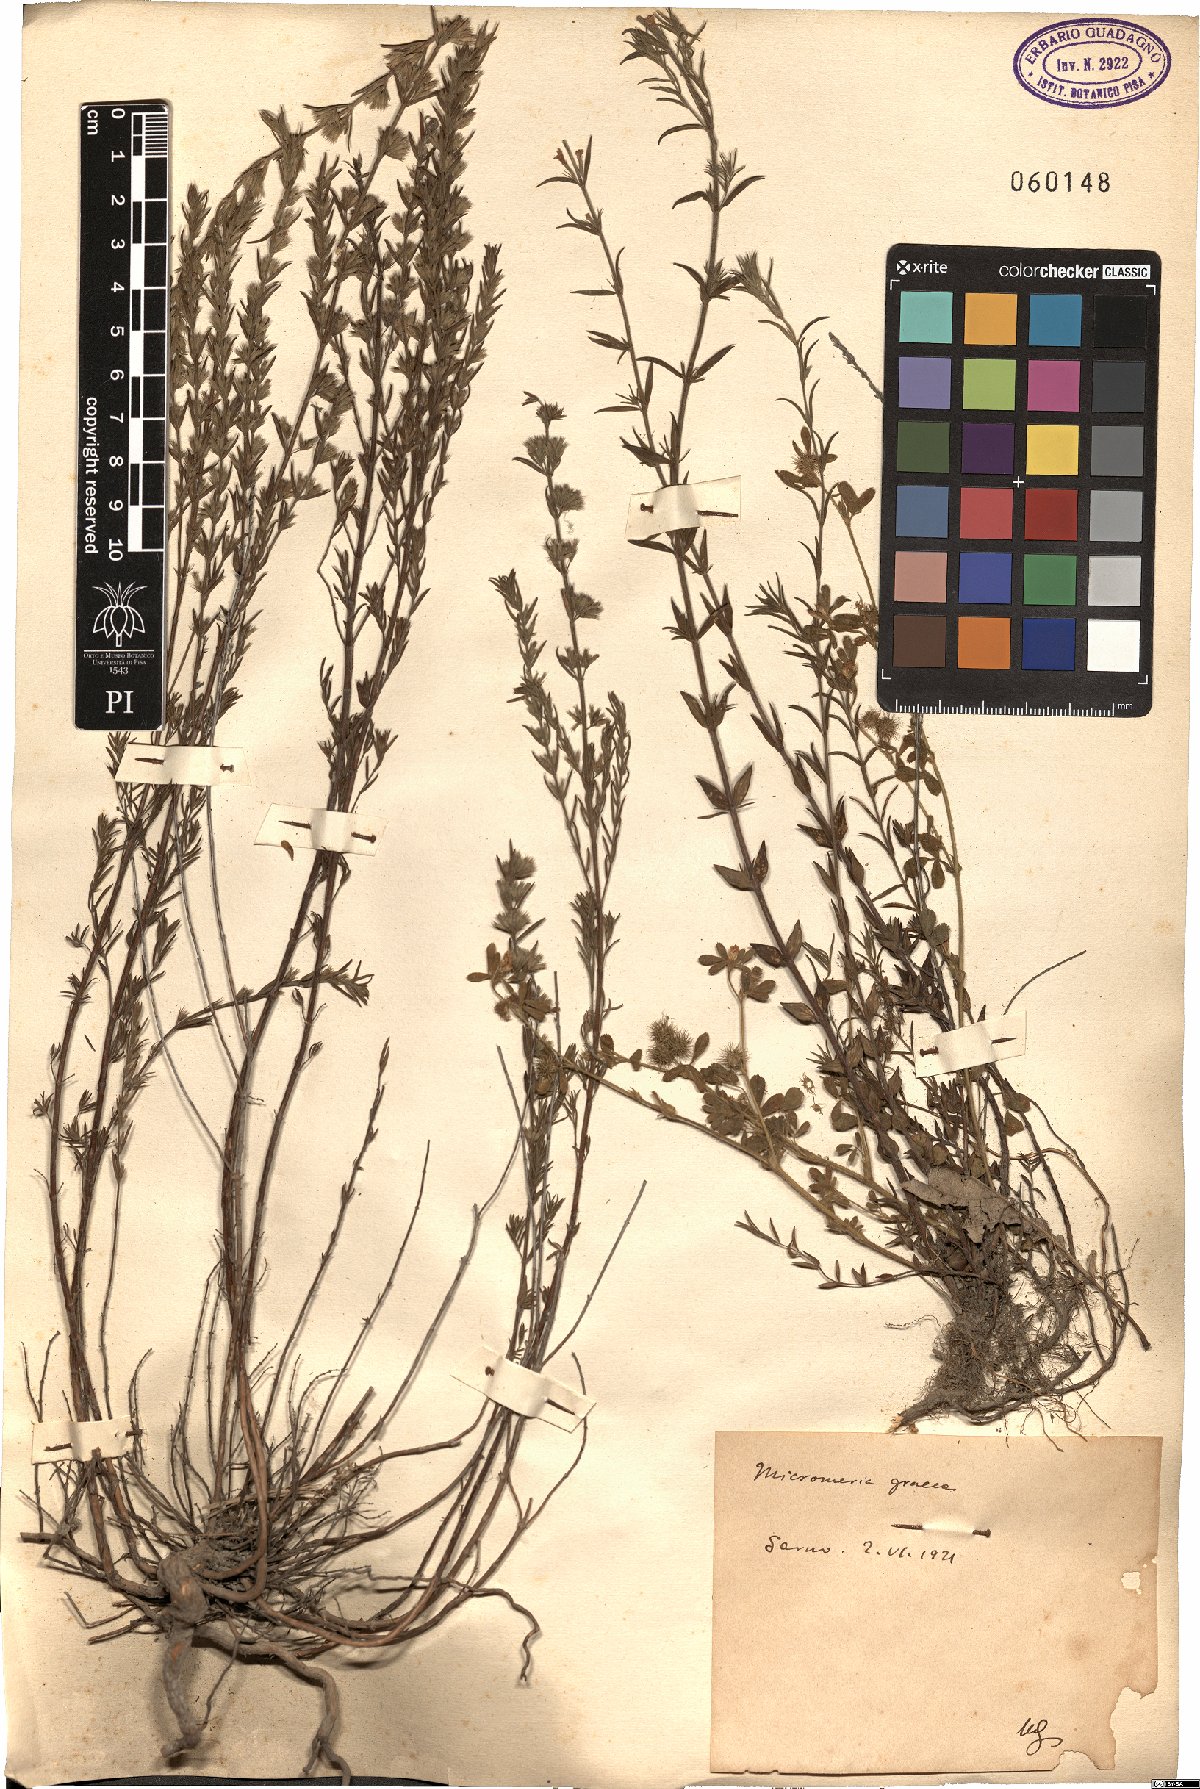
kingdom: Plantae
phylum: Tracheophyta
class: Magnoliopsida
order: Lamiales
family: Lamiaceae
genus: Micromeria
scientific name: Micromeria graeca
